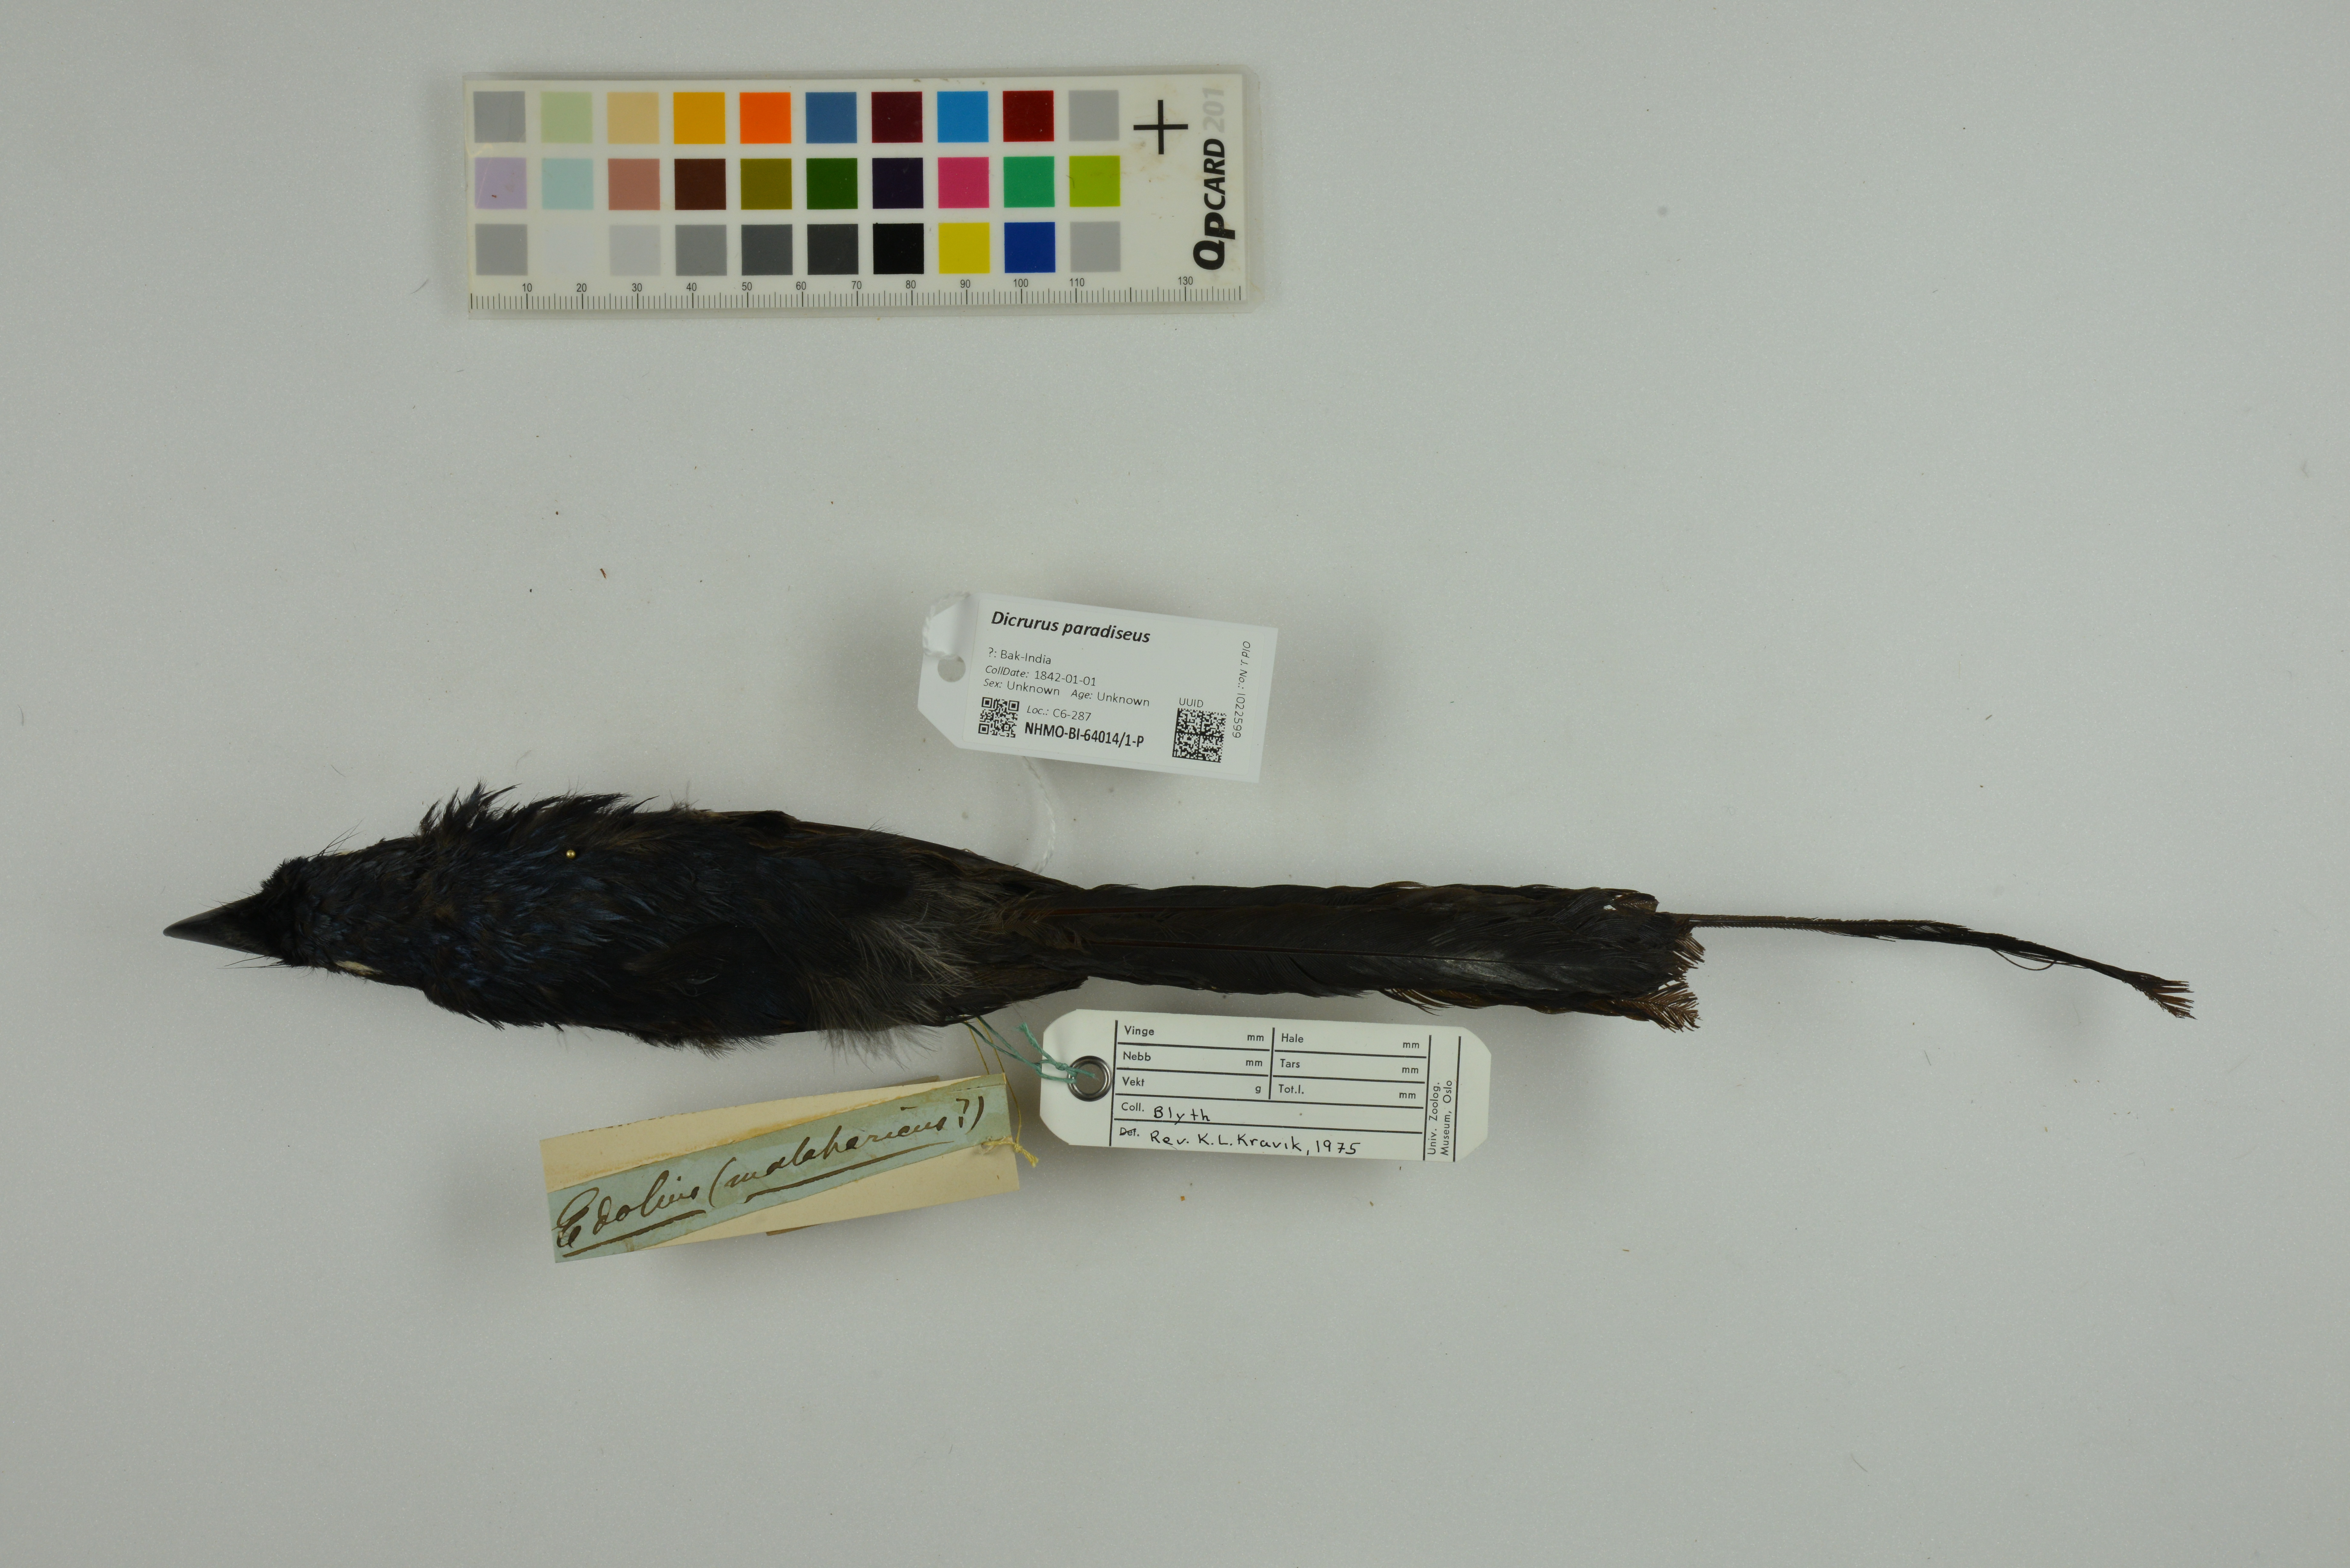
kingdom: Animalia
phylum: Chordata
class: Aves
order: Passeriformes
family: Dicruridae
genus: Dicrurus
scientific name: Dicrurus paradiseus
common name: Greater racket-tailed drongo
